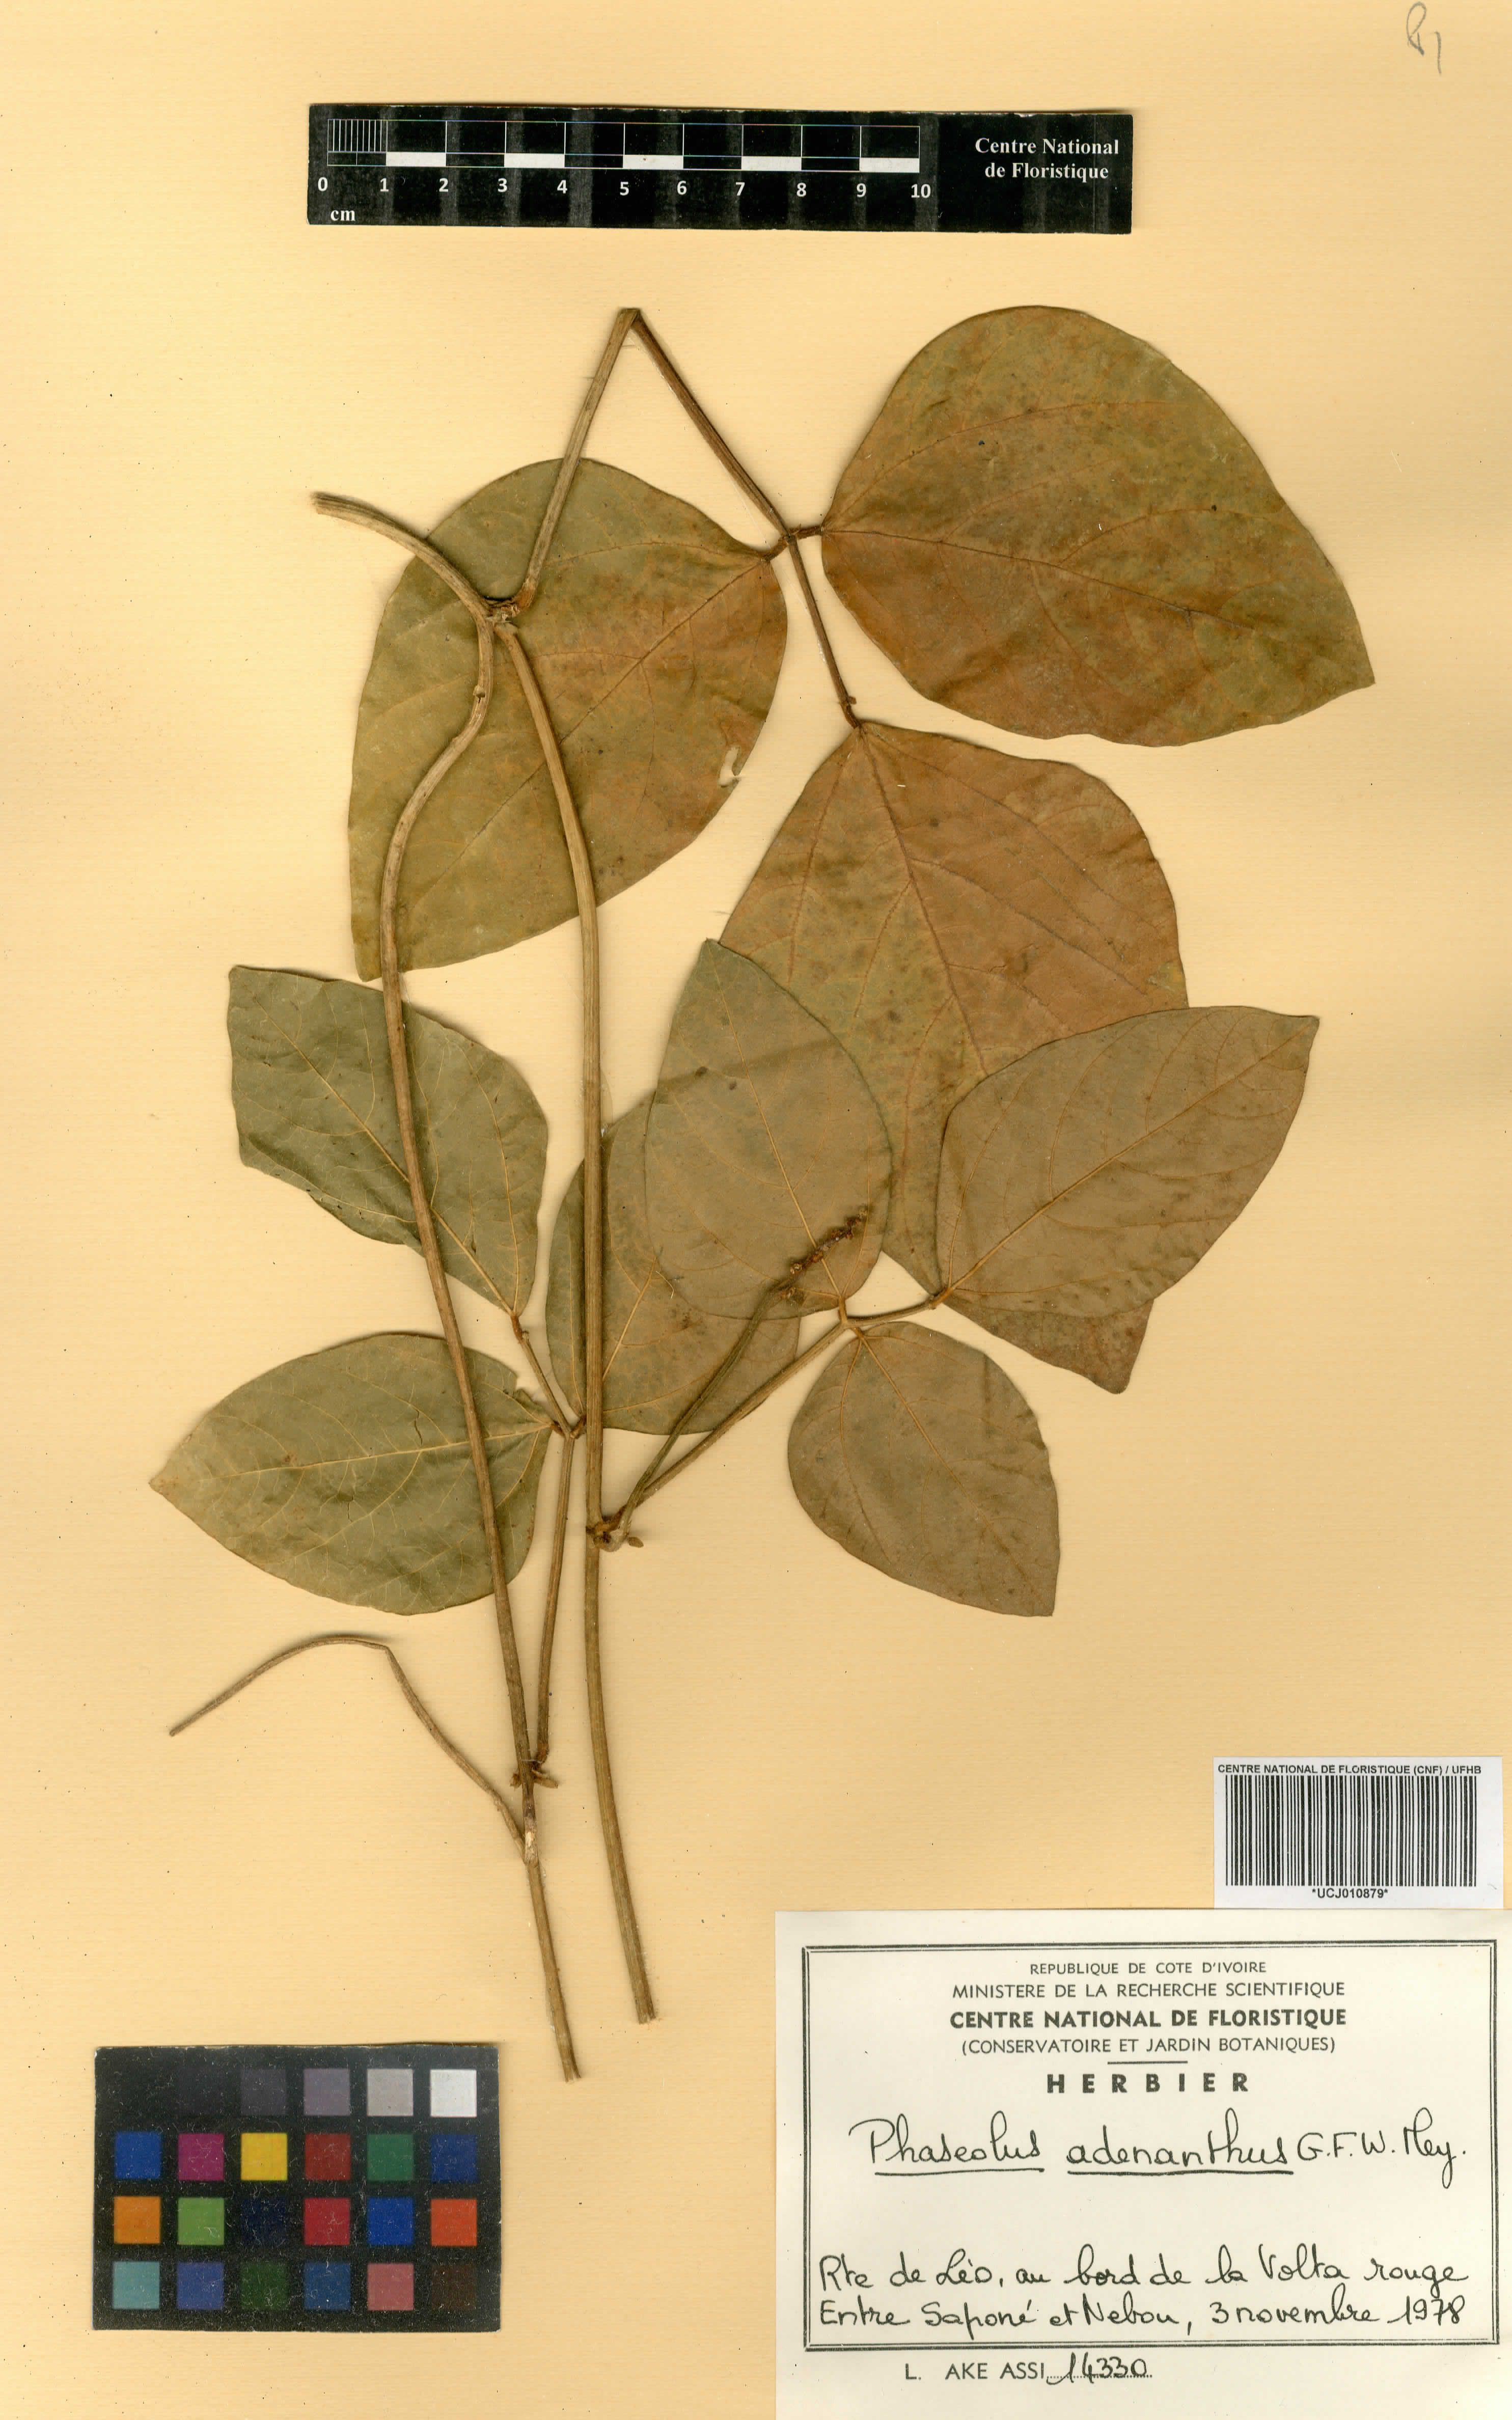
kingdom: Plantae
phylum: Tracheophyta
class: Magnoliopsida
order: Fabales
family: Fabaceae
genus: Leptospron
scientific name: Leptospron adenanthum
